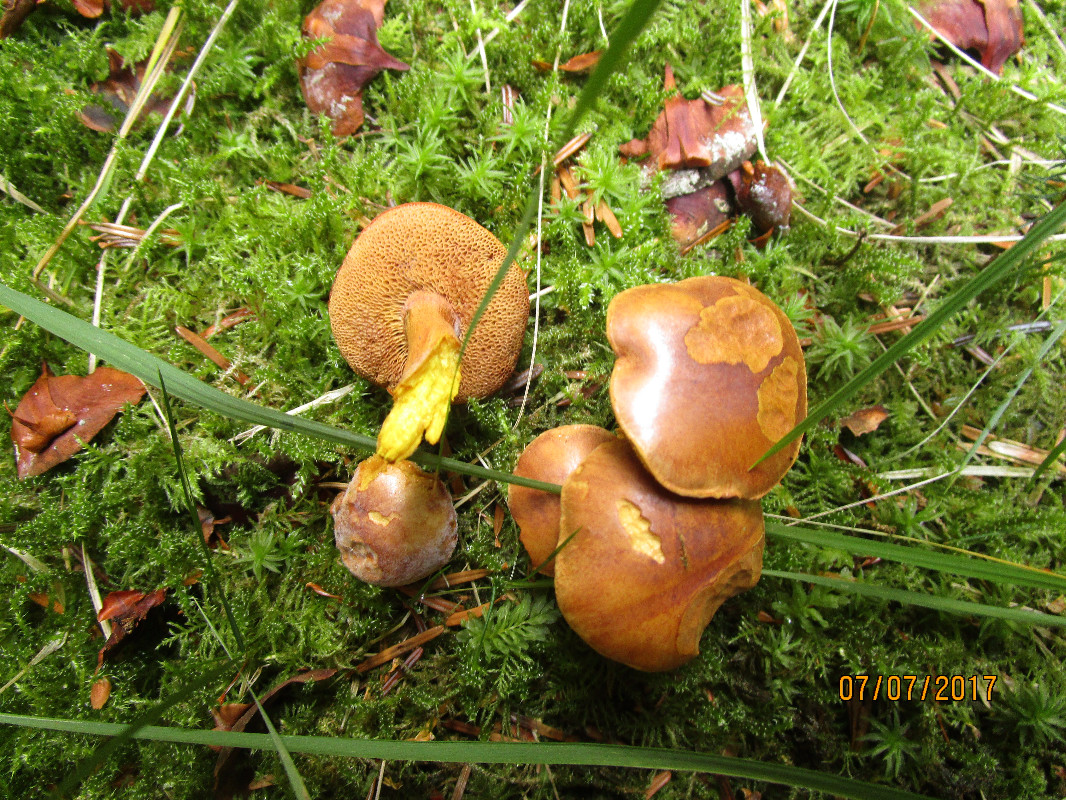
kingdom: Fungi
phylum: Basidiomycota
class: Agaricomycetes
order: Boletales
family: Boletaceae
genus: Chalciporus
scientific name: Chalciporus piperatus
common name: peberrørhat
